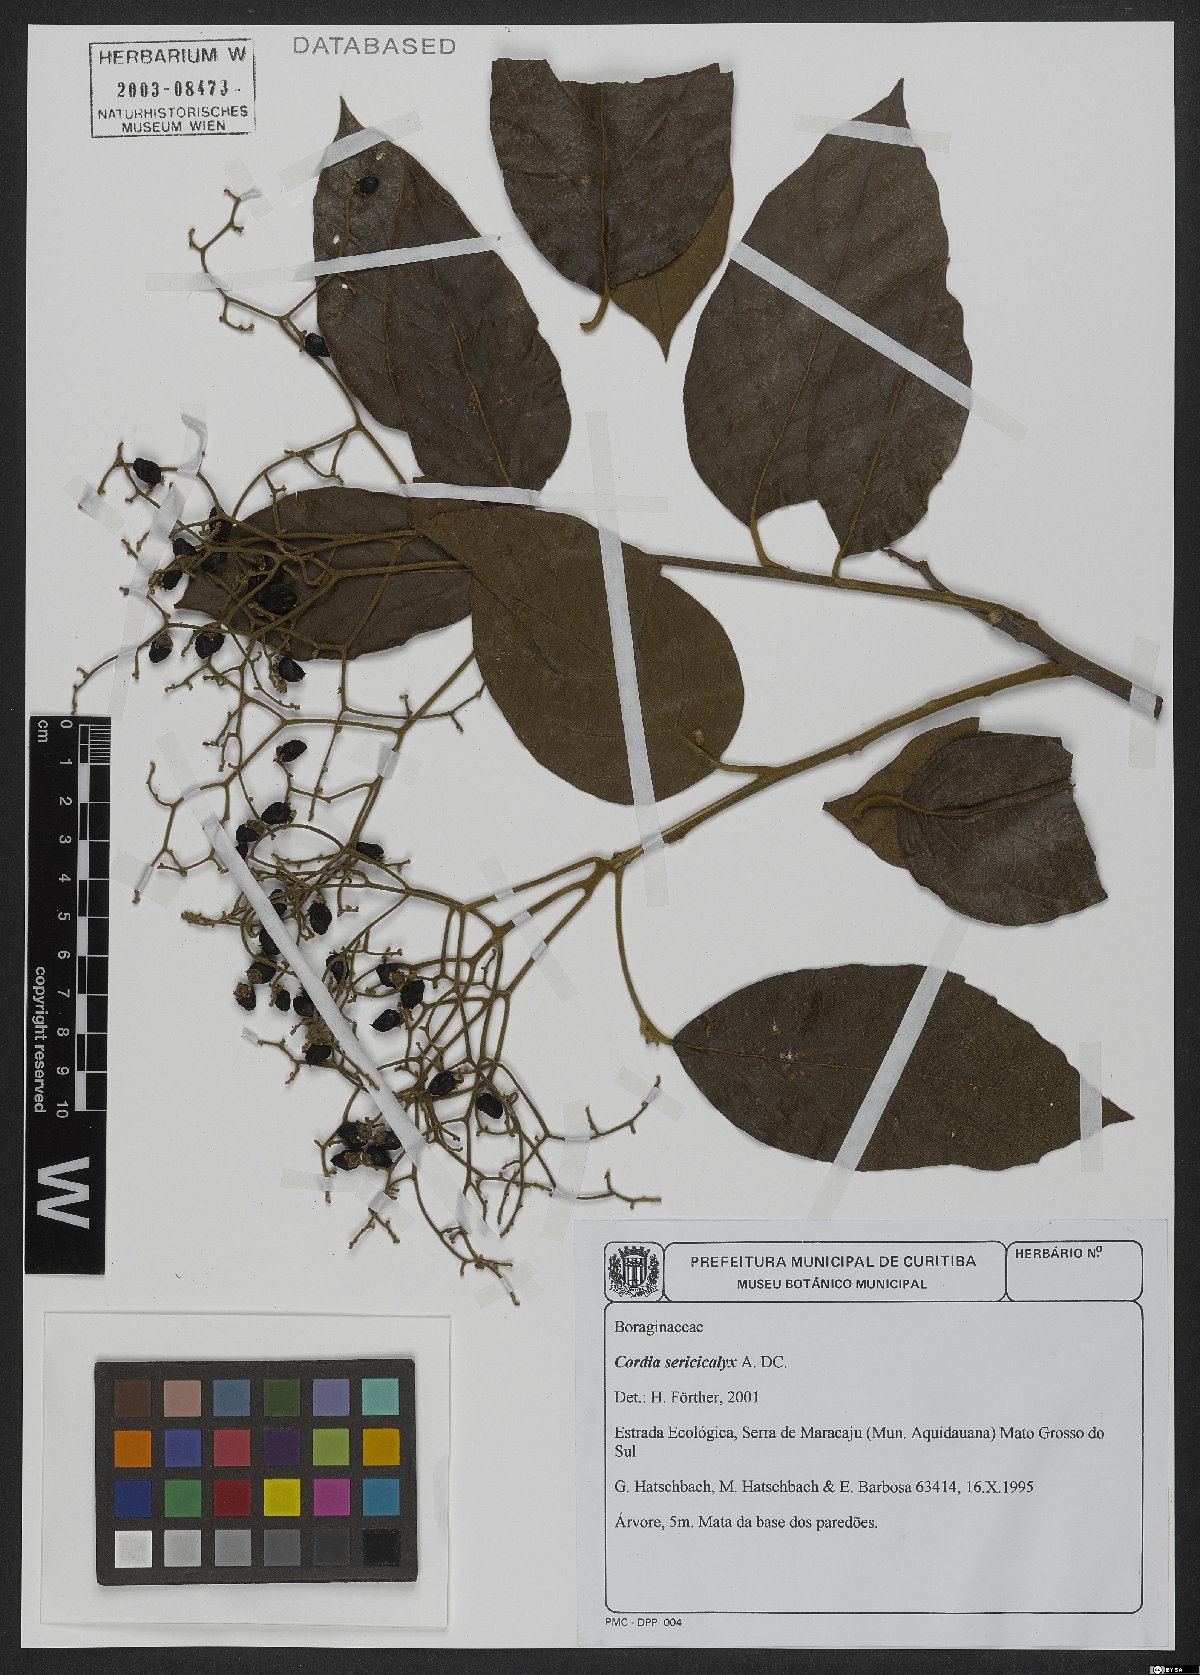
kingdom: Plantae
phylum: Tracheophyta
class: Magnoliopsida
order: Boraginales
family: Cordiaceae
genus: Cordia
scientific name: Cordia sericicalyx
